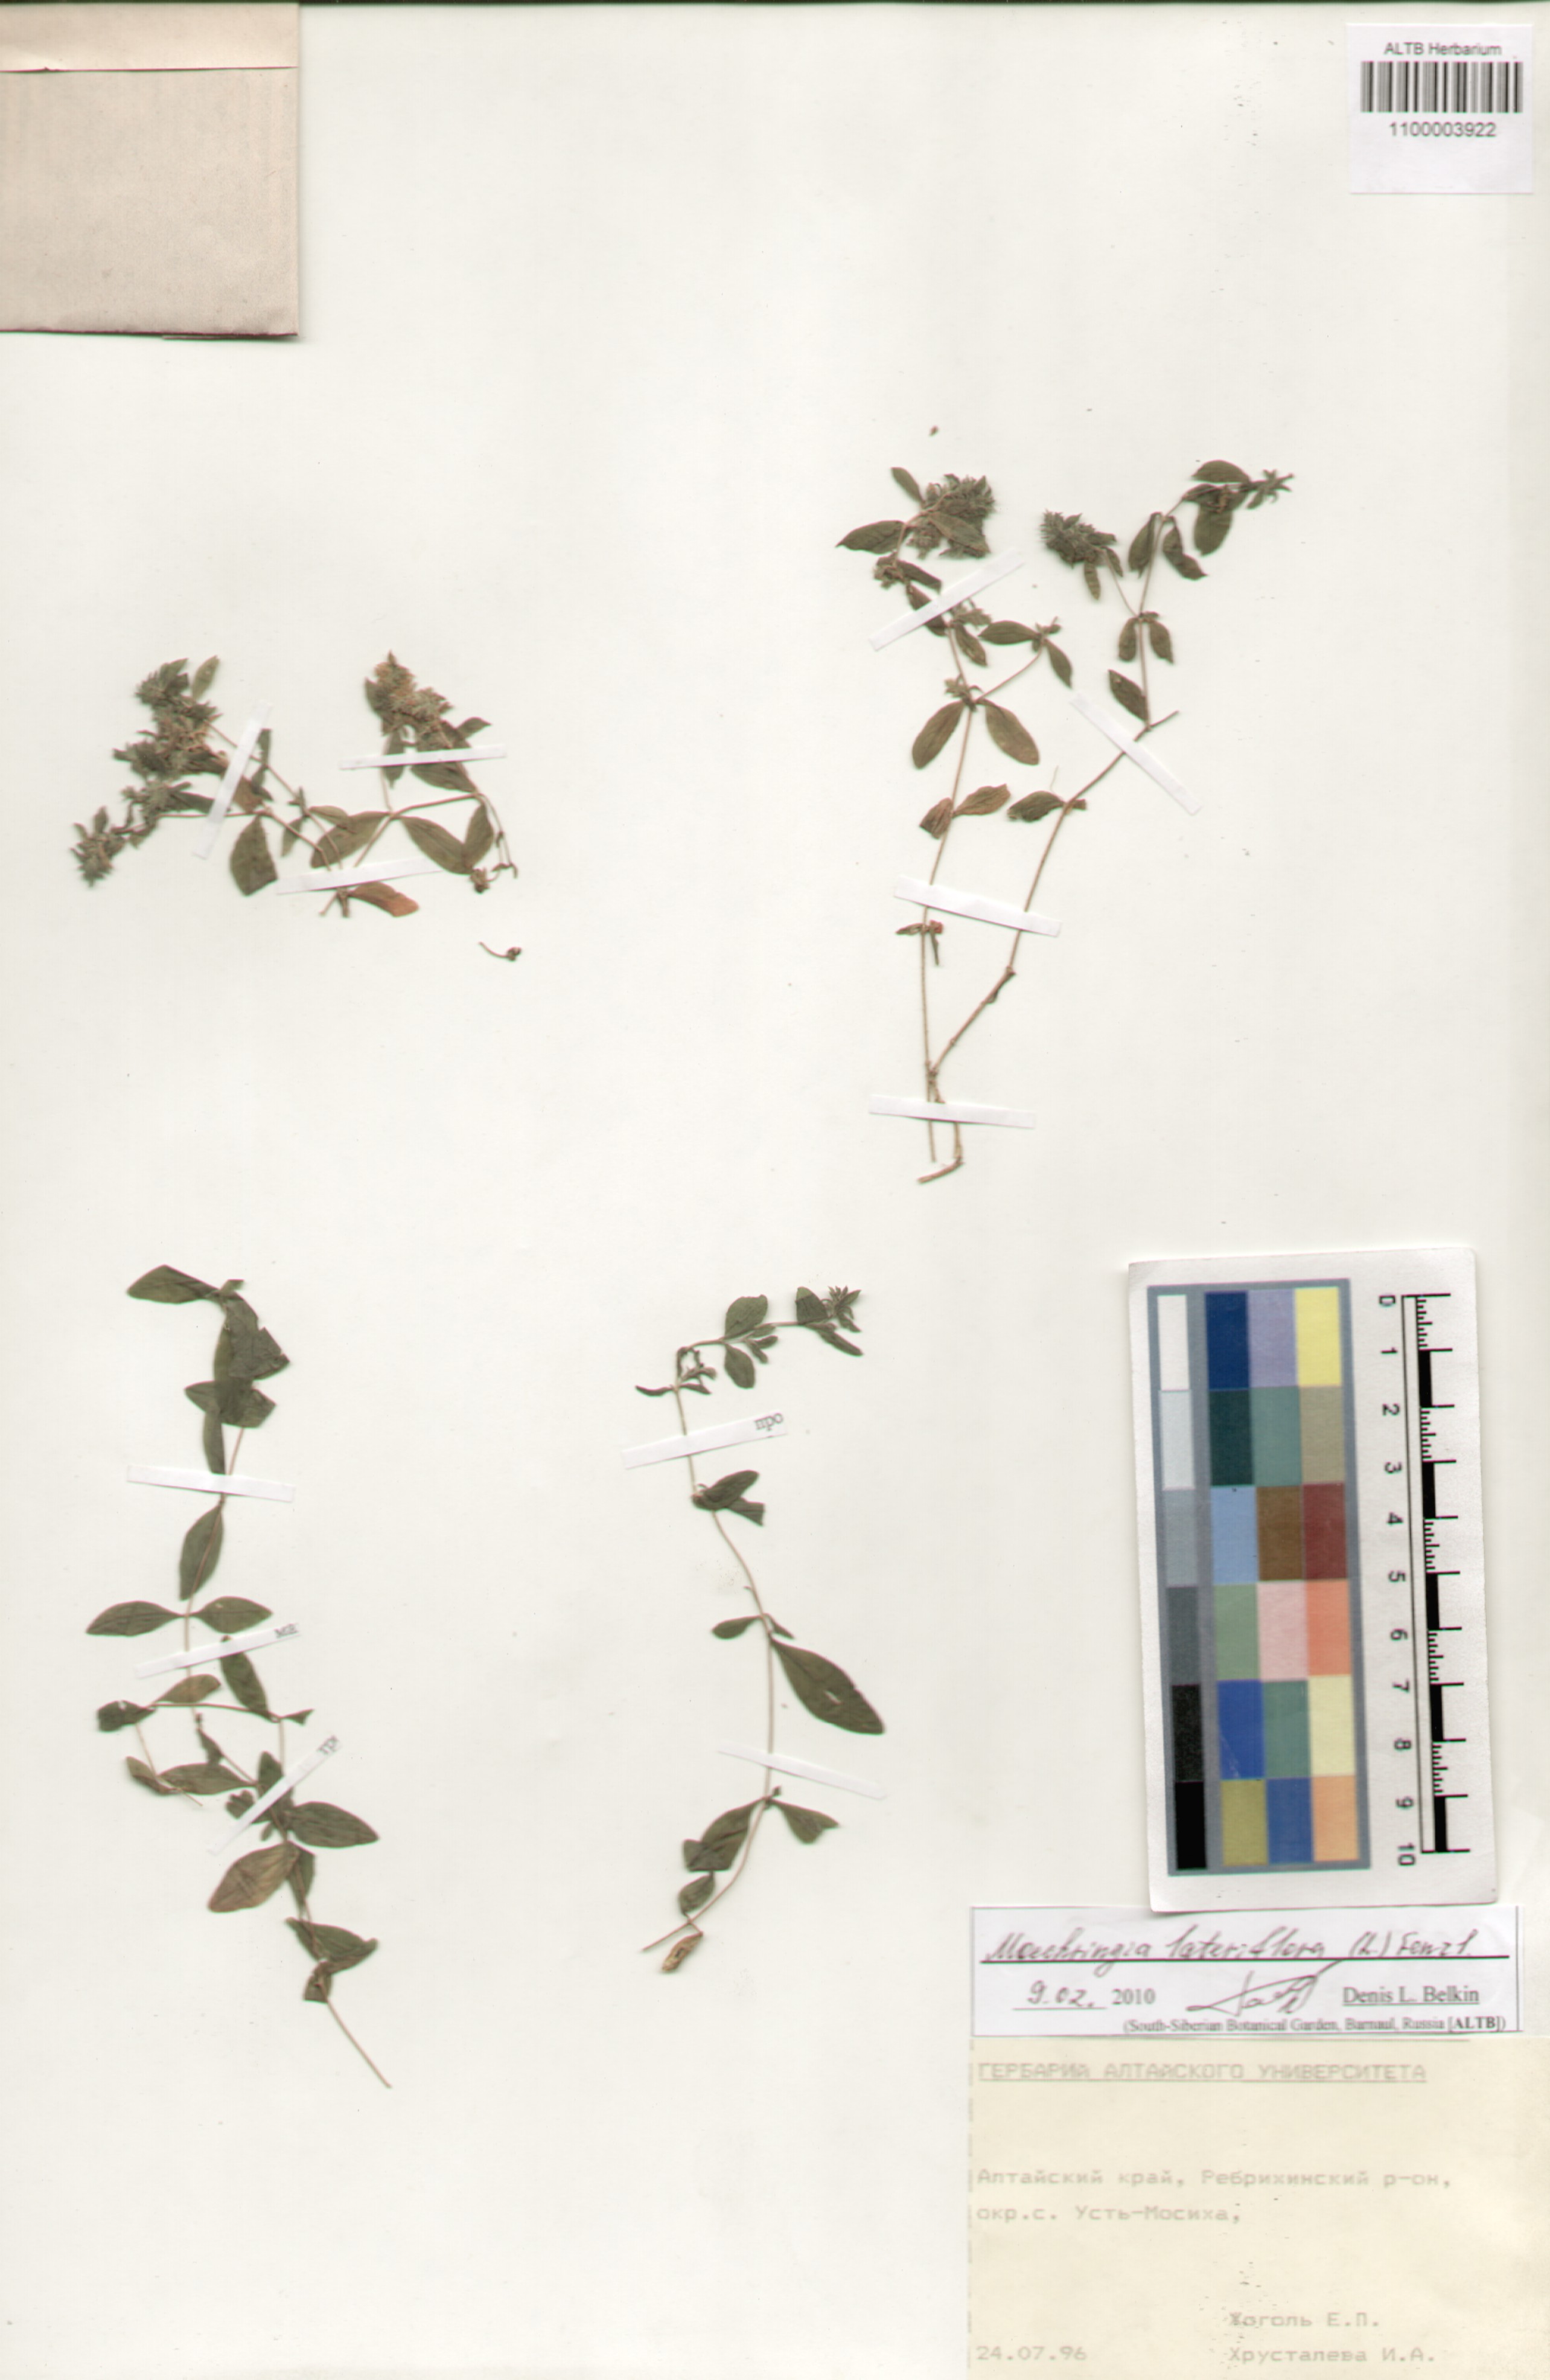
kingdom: Plantae
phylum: Tracheophyta
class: Magnoliopsida
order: Caryophyllales
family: Caryophyllaceae
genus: Moehringia
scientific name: Moehringia lateriflora
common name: Blunt-leaved sandwort
